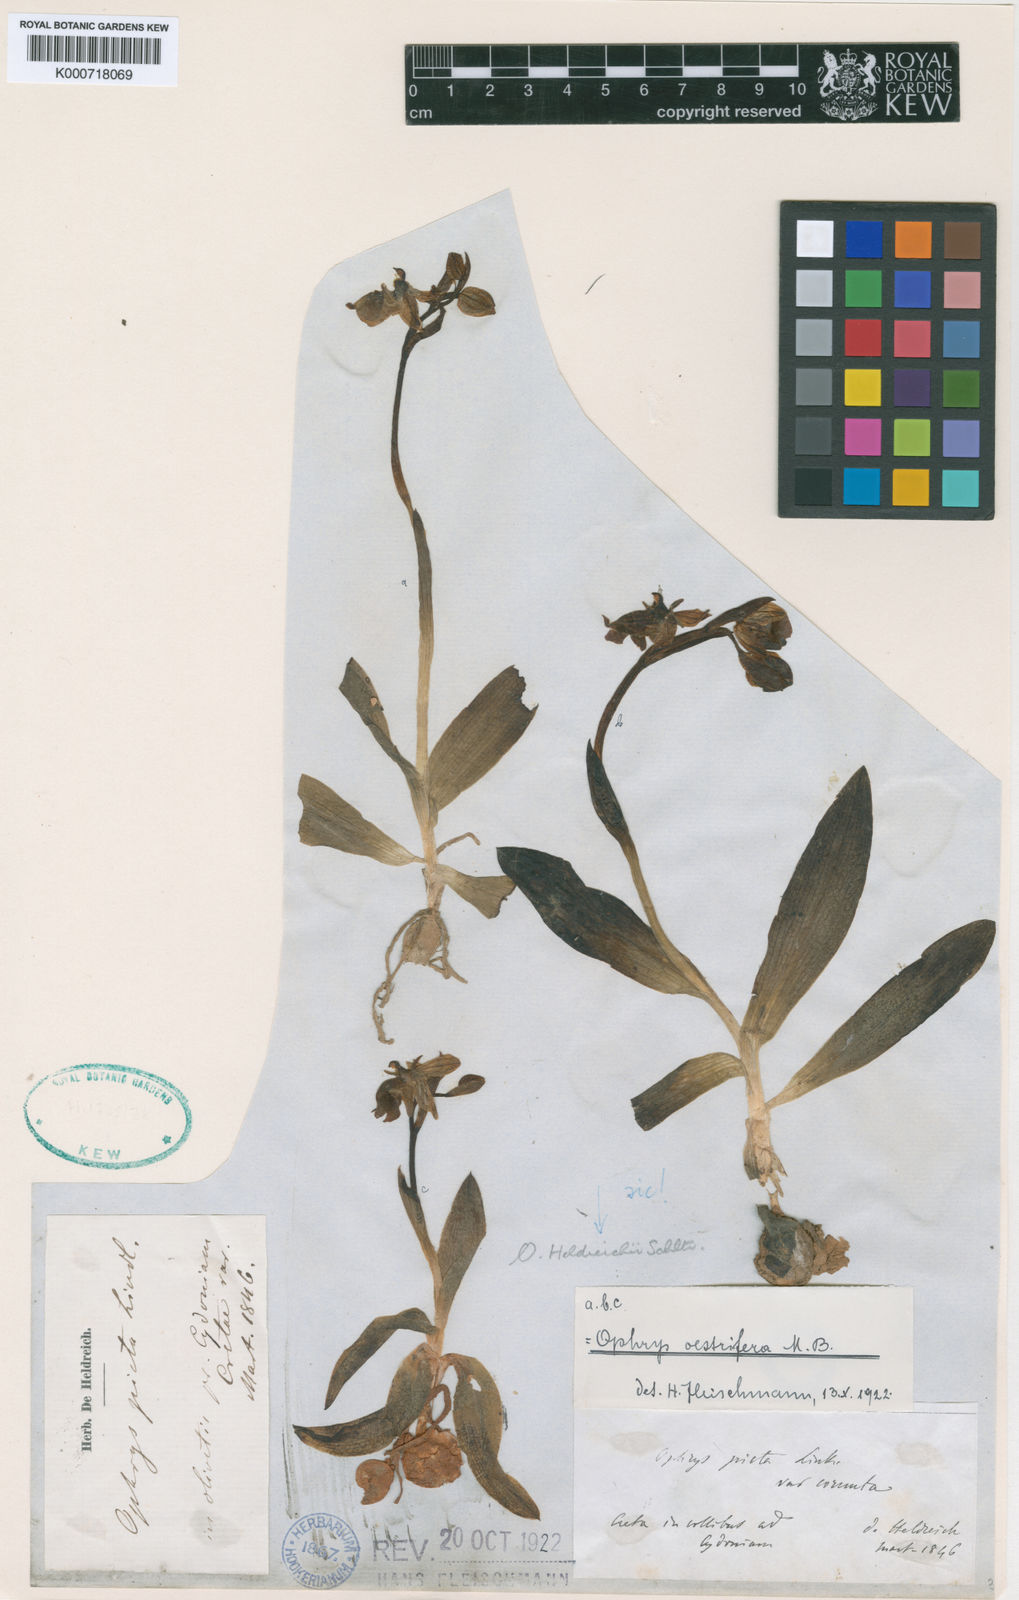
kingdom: Plantae
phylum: Tracheophyta
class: Liliopsida
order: Asparagales
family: Orchidaceae
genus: Ophrys
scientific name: Ophrys scolopax
